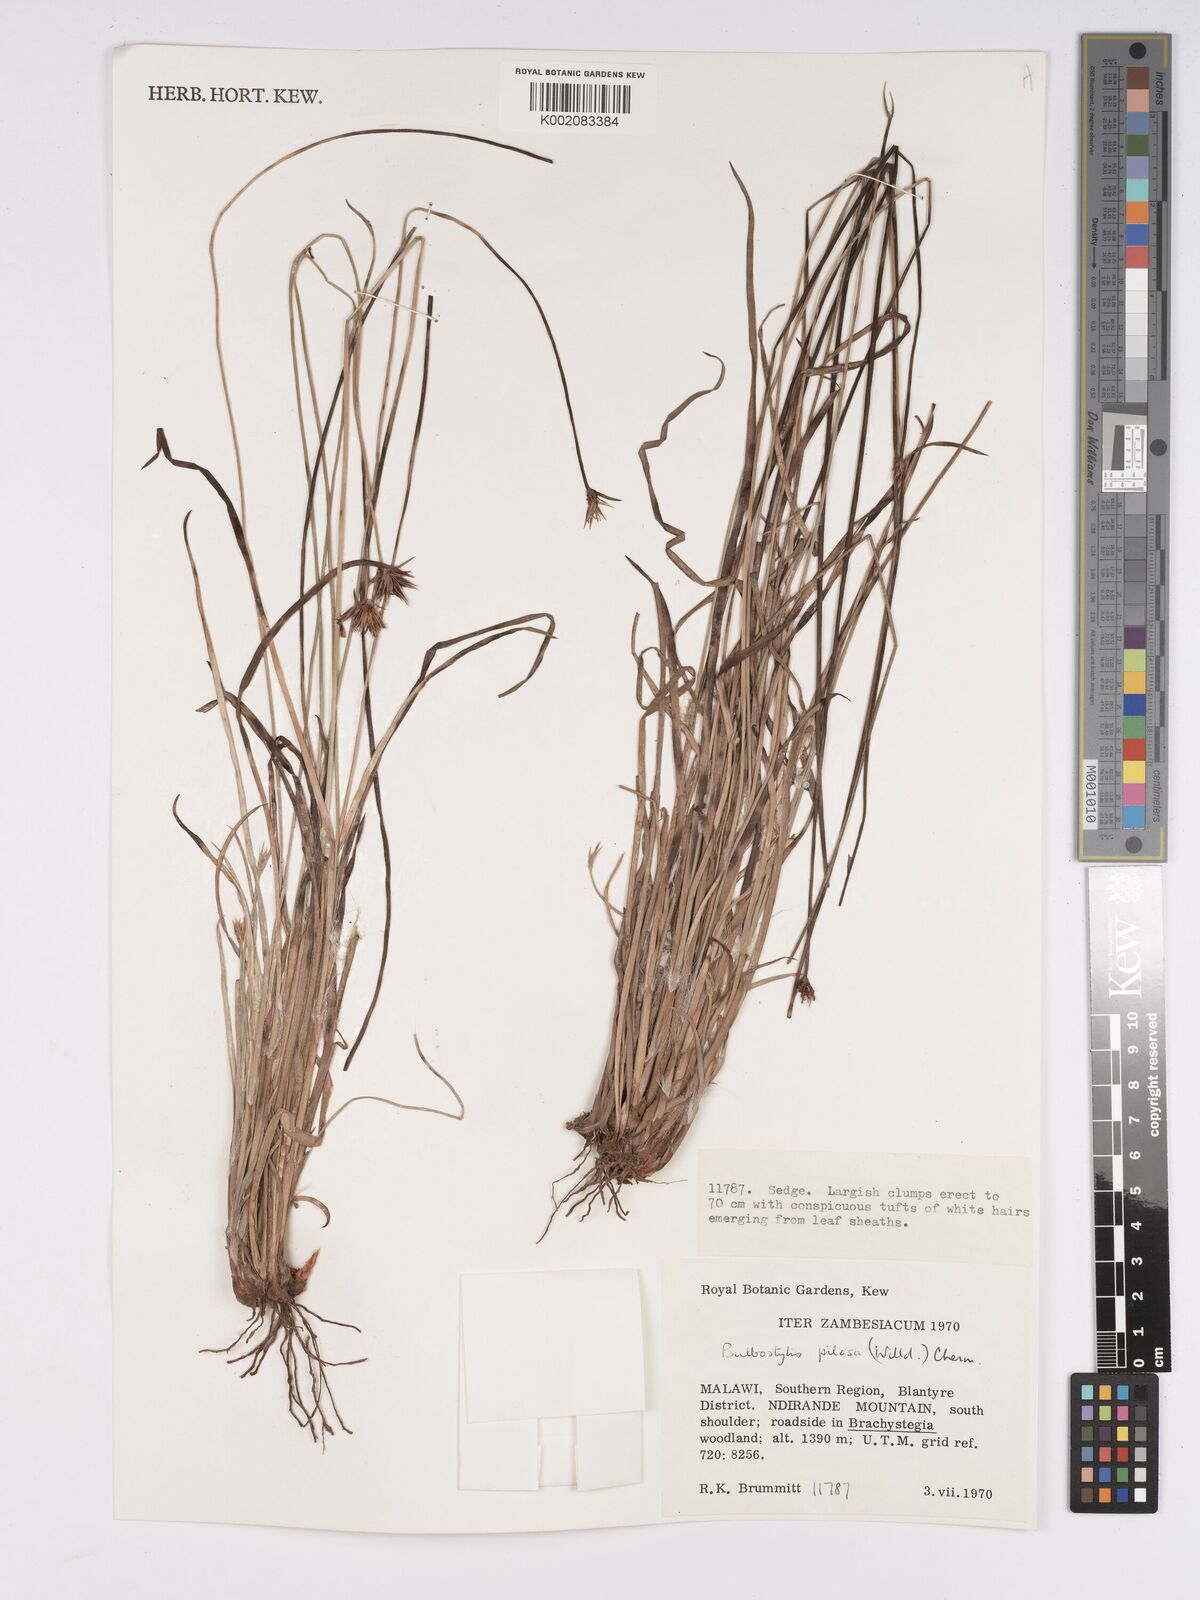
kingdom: Plantae
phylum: Tracheophyta
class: Liliopsida
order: Poales
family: Cyperaceae
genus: Bulbostylis
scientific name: Bulbostylis pilosa
